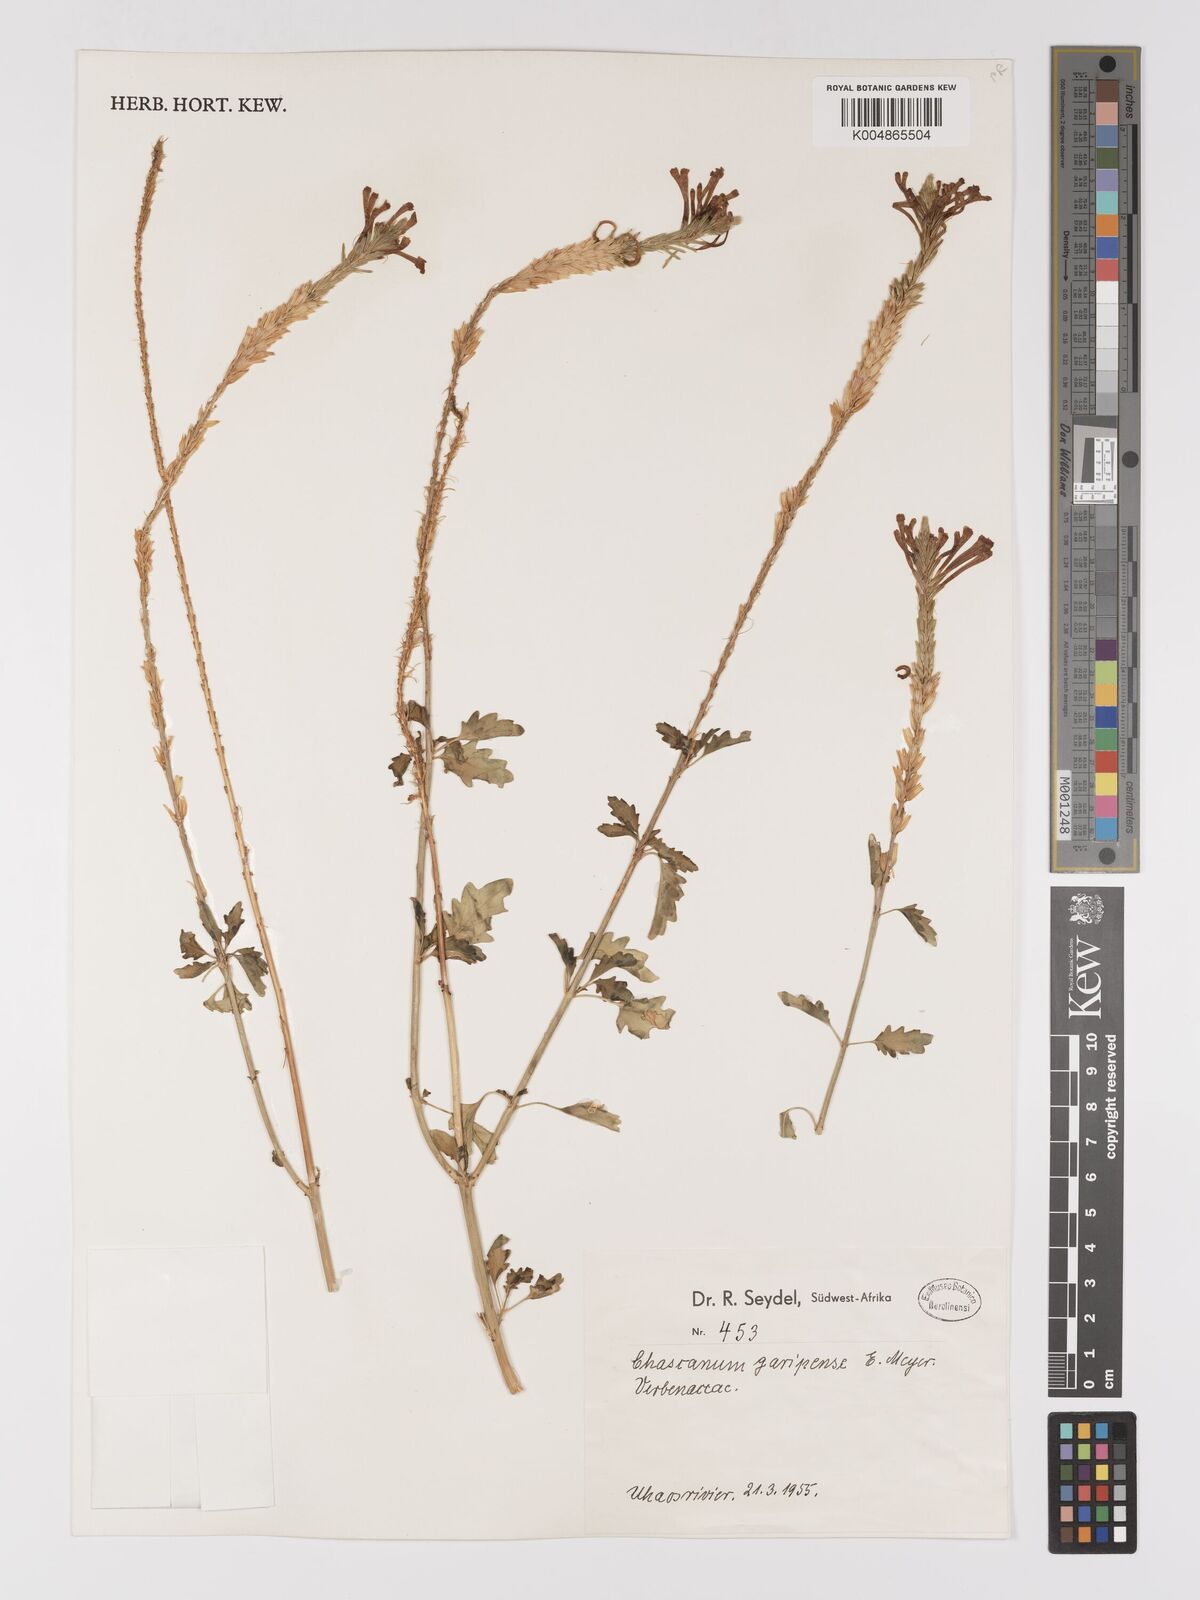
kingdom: Plantae
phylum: Tracheophyta
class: Magnoliopsida
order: Lamiales
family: Verbenaceae
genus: Chascanum
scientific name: Chascanum garipense
